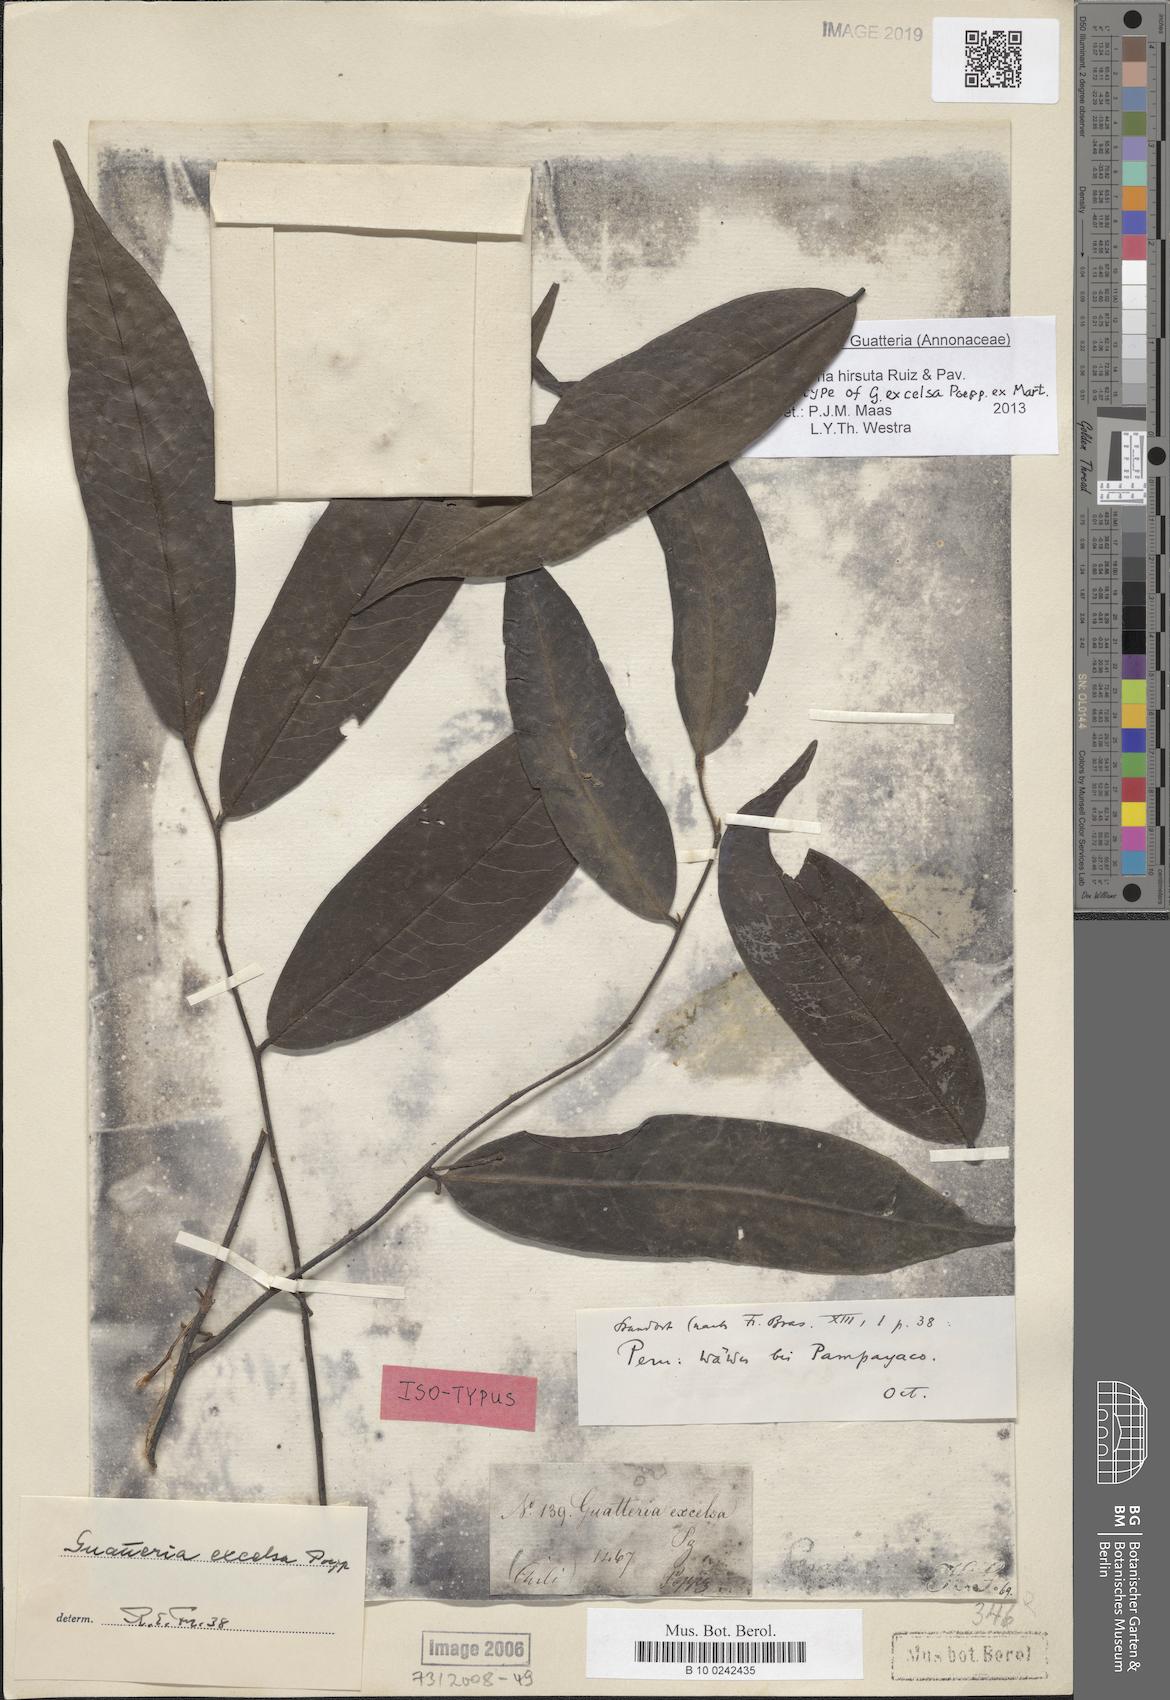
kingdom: Plantae
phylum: Tracheophyta
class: Magnoliopsida
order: Magnoliales
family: Annonaceae
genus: Guatteria
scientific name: Guatteria hirsuta
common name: Laurel
